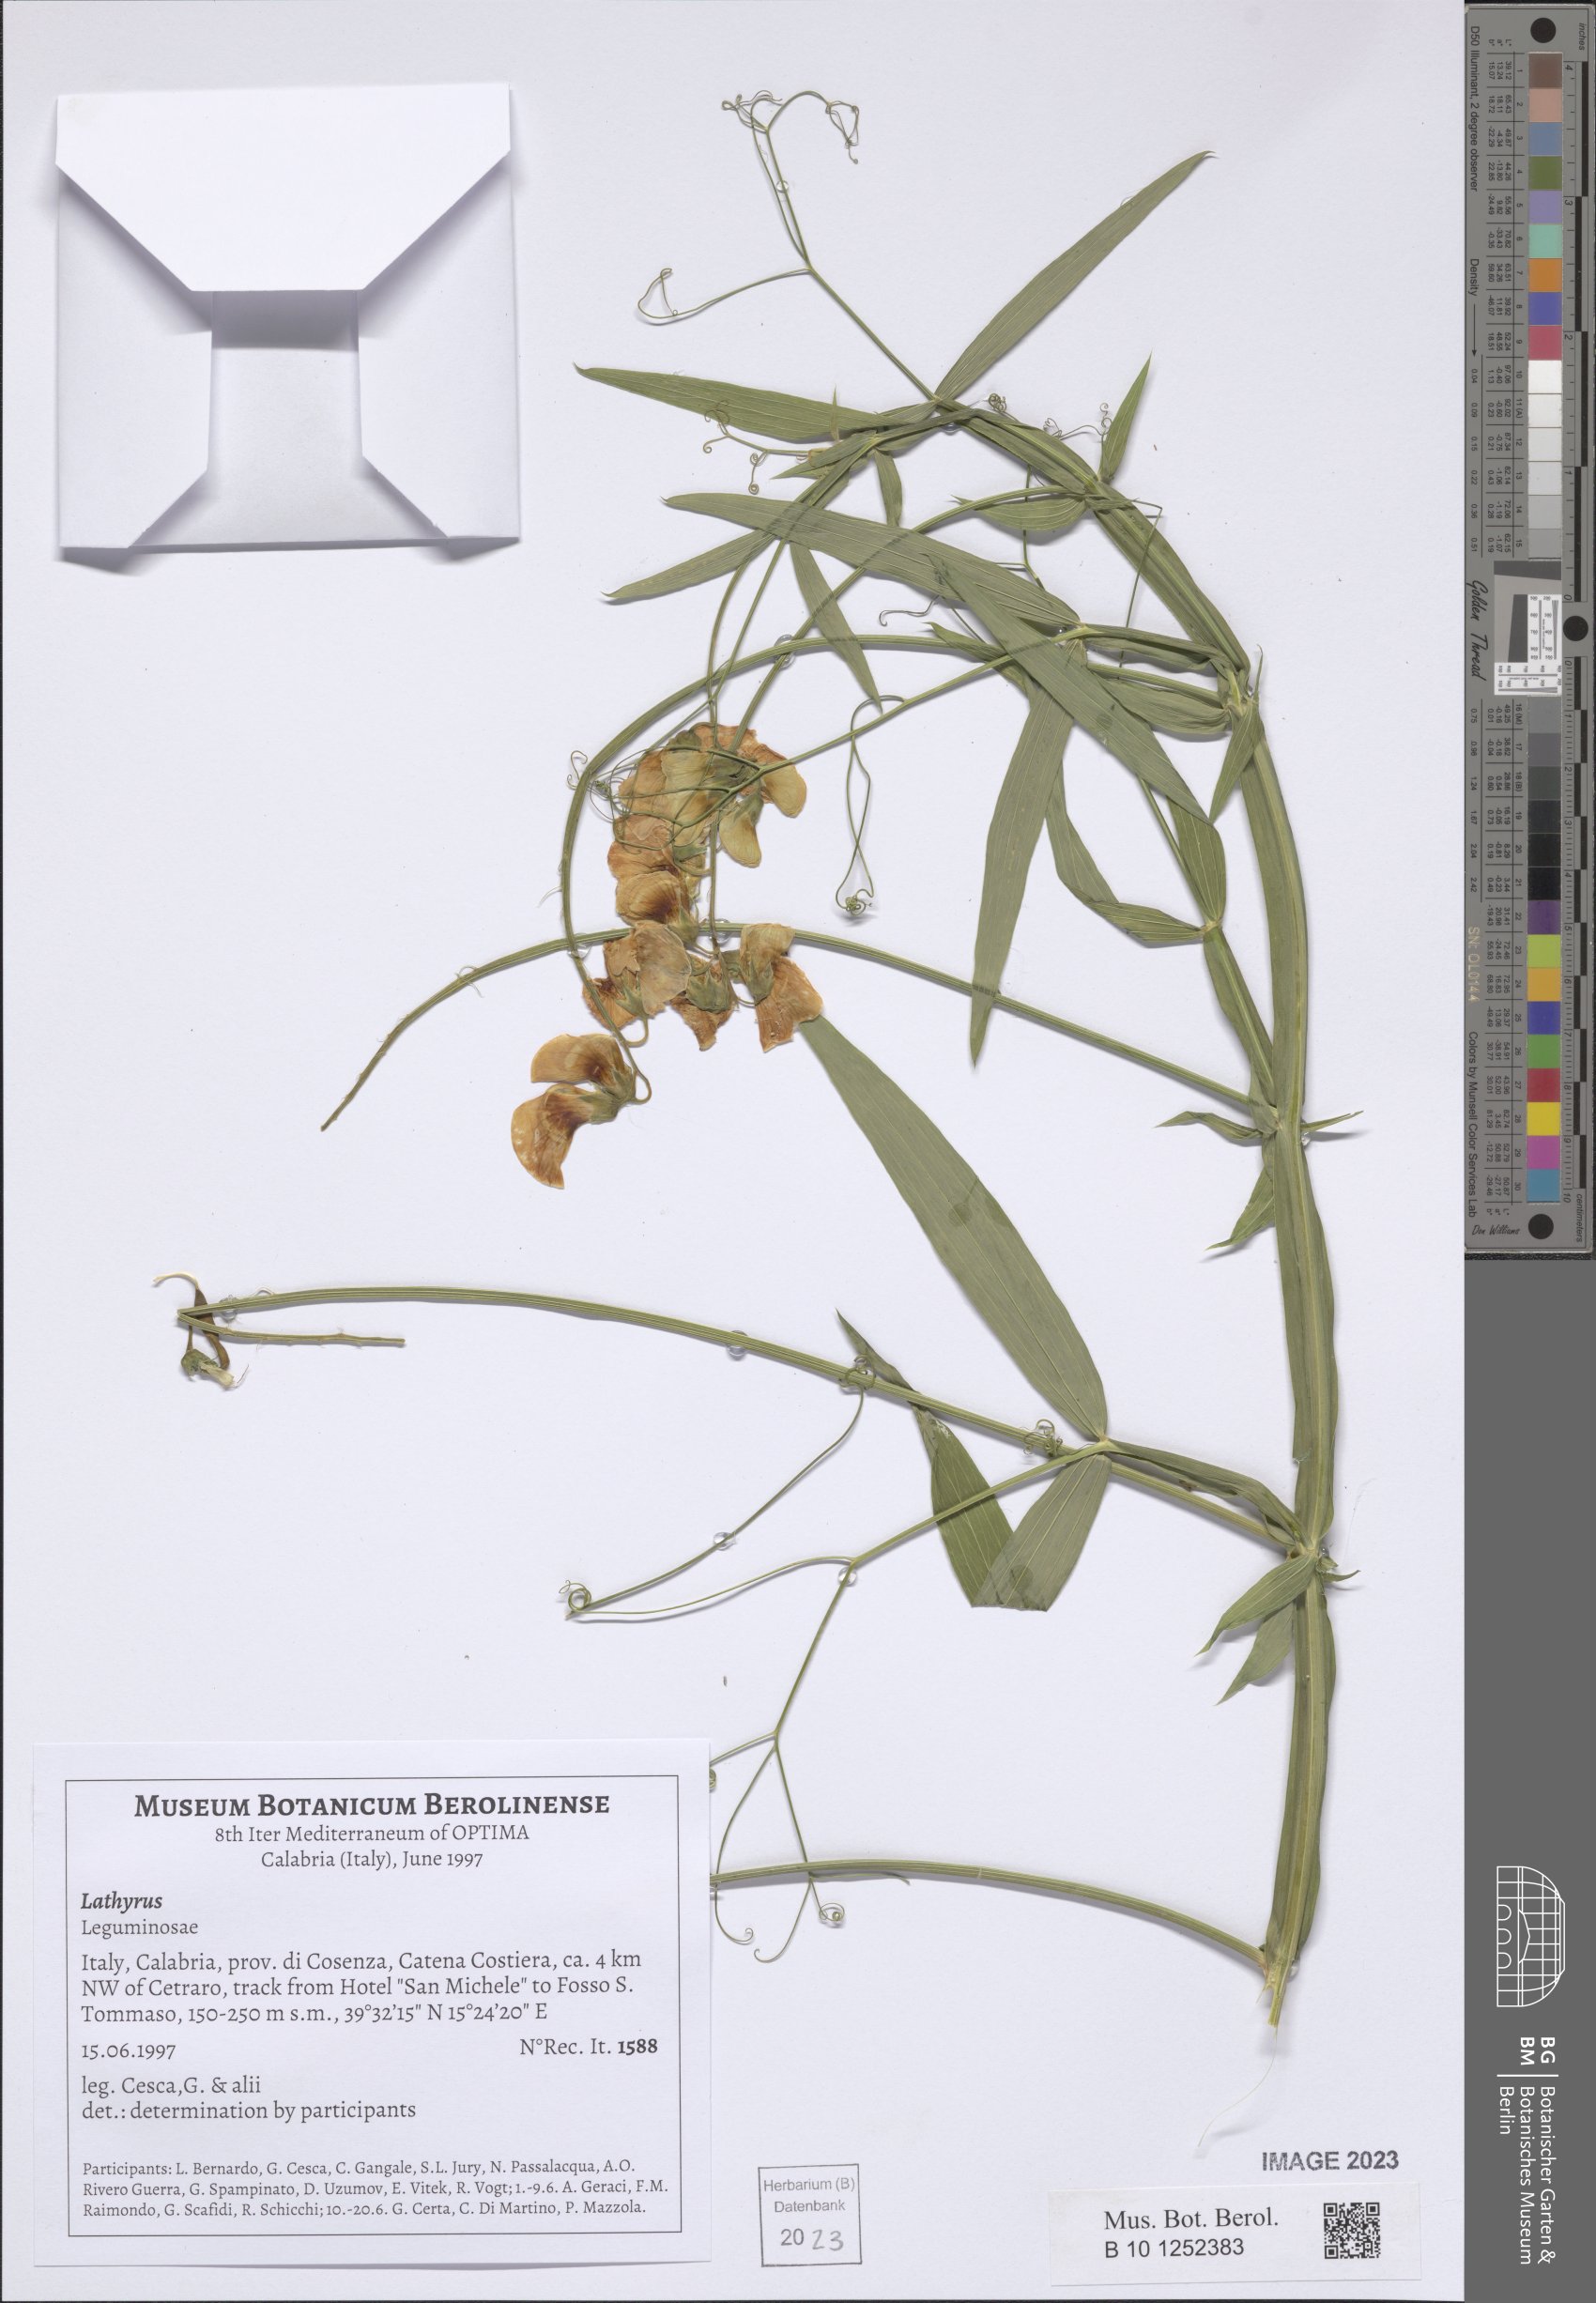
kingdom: Plantae
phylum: Tracheophyta
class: Magnoliopsida
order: Fabales
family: Fabaceae
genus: Lathyrus
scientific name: Lathyrus
